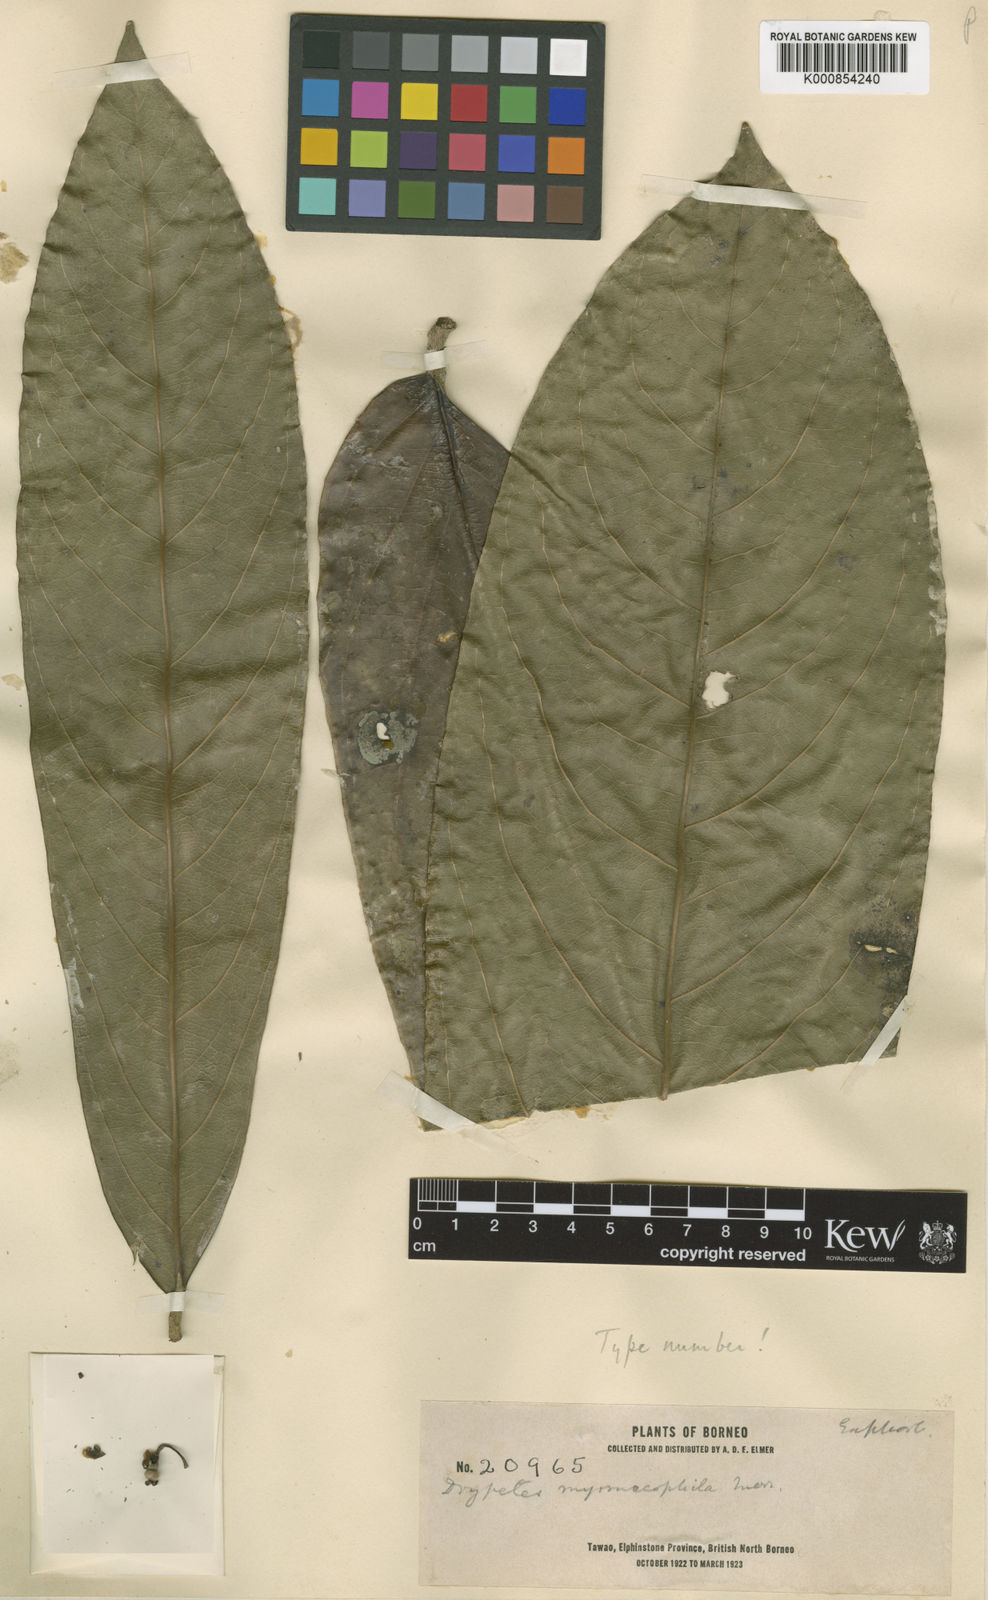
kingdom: Plantae
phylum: Tracheophyta
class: Magnoliopsida
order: Malpighiales
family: Putranjivaceae
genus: Drypetes
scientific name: Drypetes longifolia
